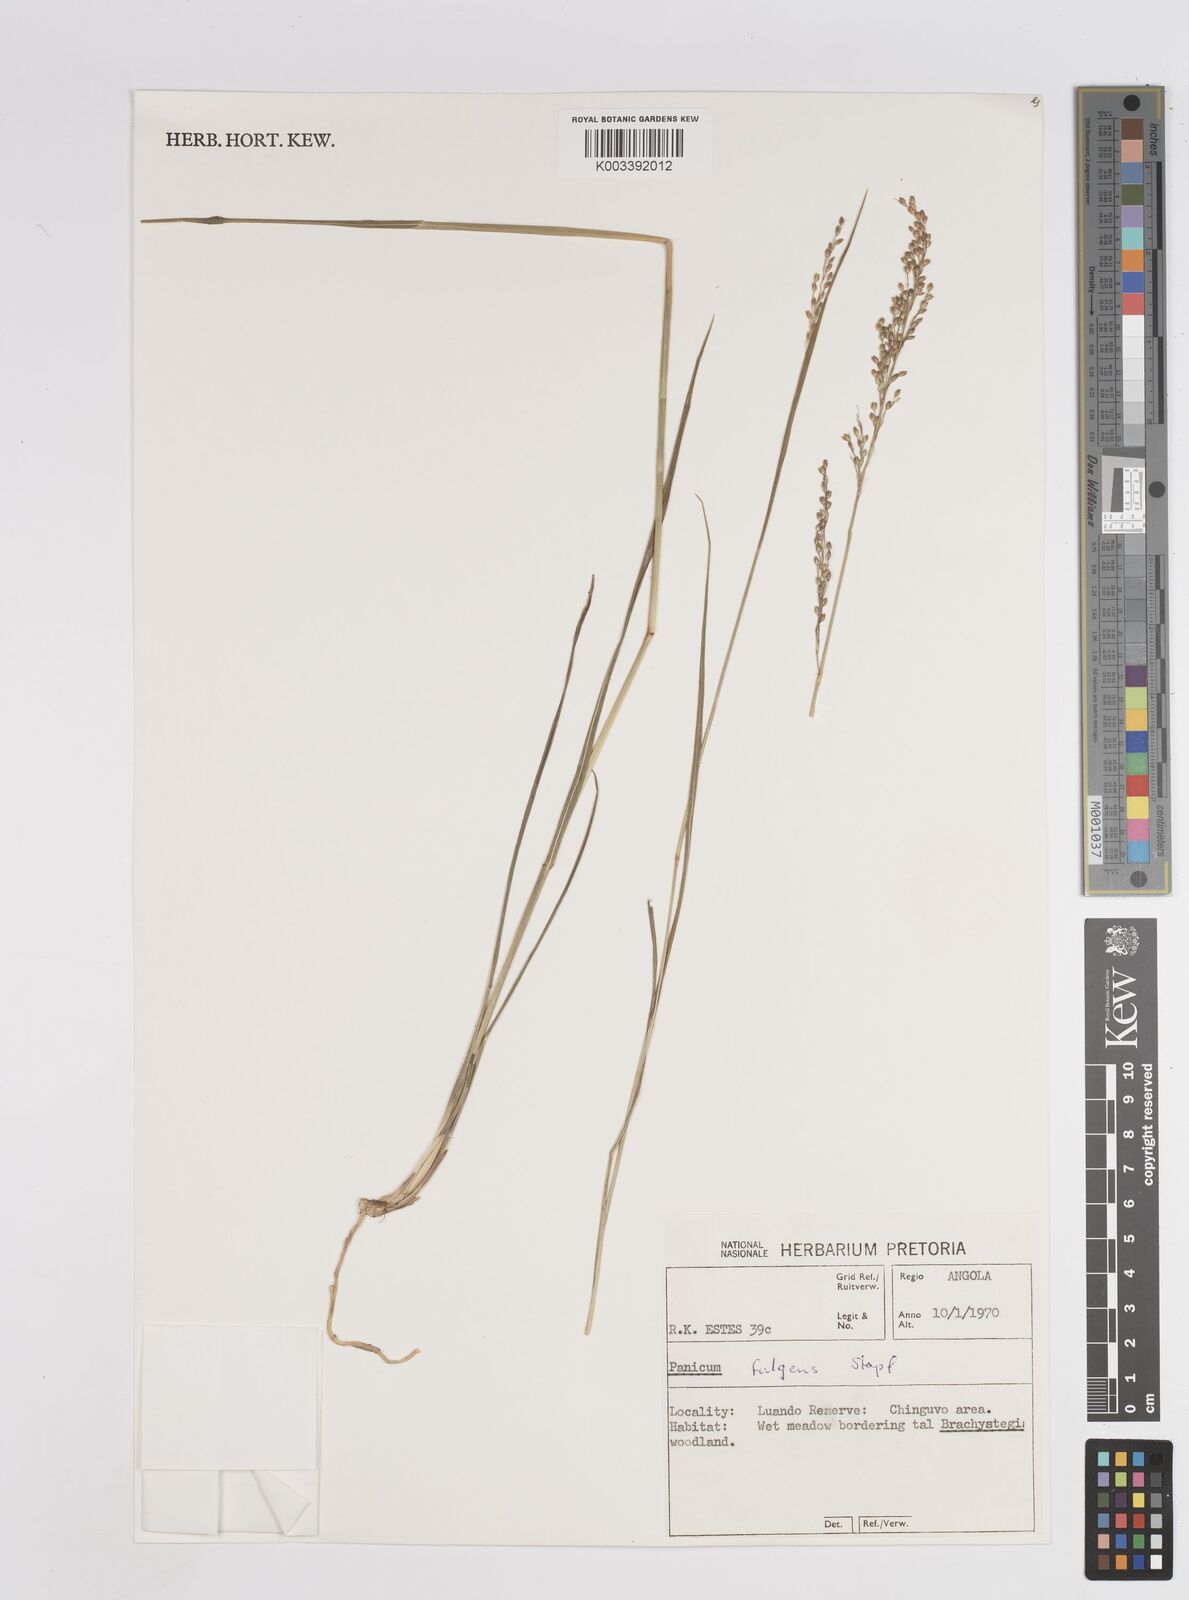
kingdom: Plantae
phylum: Tracheophyta
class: Liliopsida
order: Poales
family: Poaceae
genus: Sacciolepis
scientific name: Sacciolepis myuros
